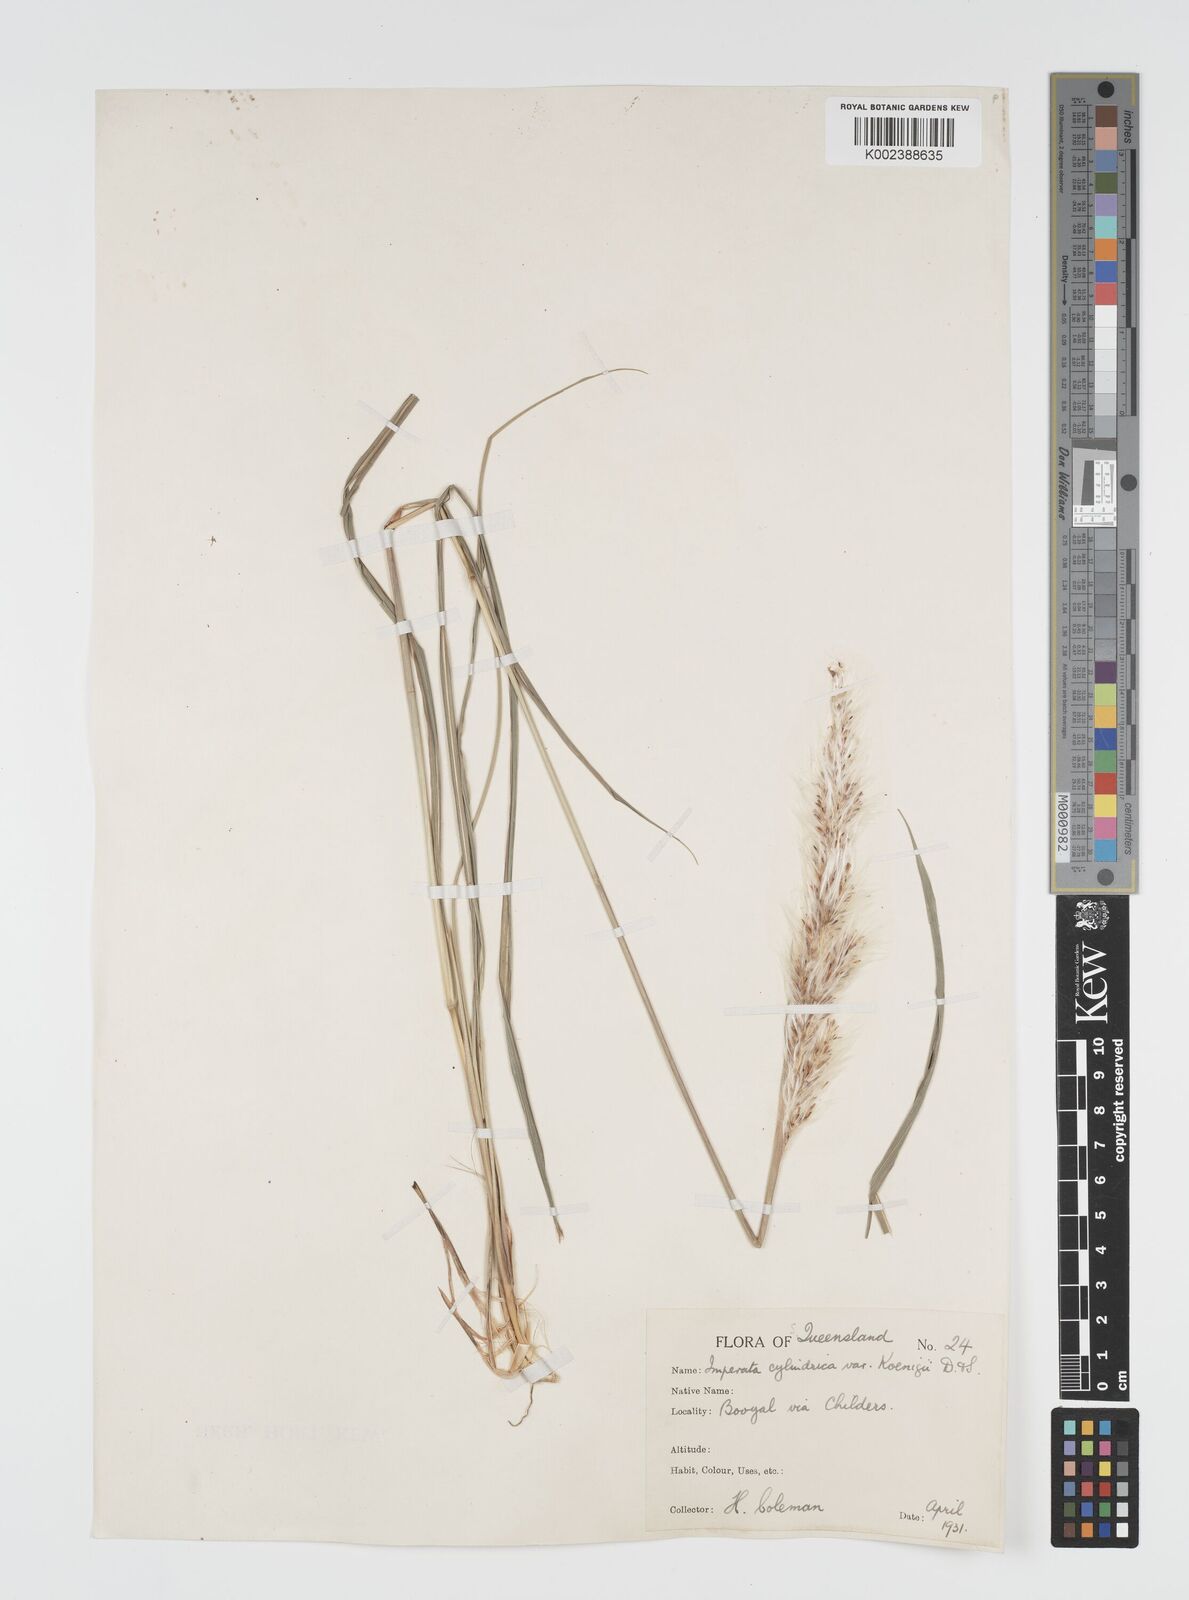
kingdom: Plantae
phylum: Tracheophyta
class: Liliopsida
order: Poales
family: Poaceae
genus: Imperata
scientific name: Imperata cylindrica
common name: Cogongrass
